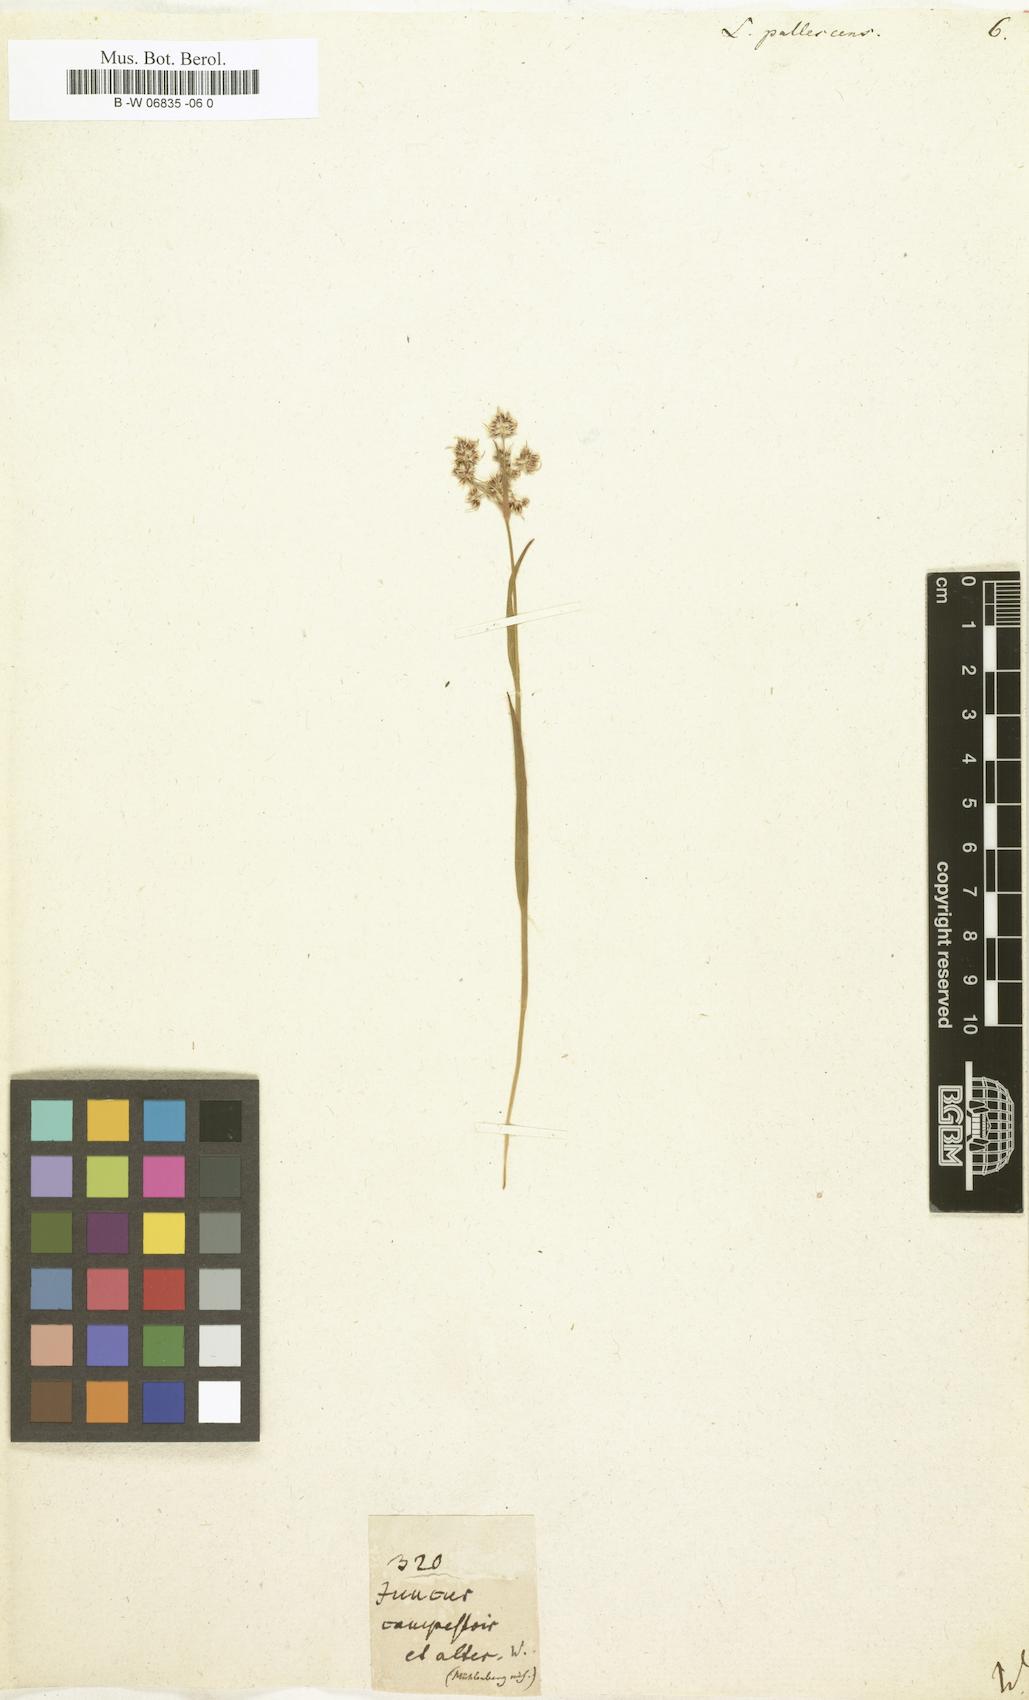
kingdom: Plantae
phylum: Tracheophyta
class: Liliopsida
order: Poales
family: Juncaceae
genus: Luzula
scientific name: Luzula pallescens
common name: Fen wood-rush
